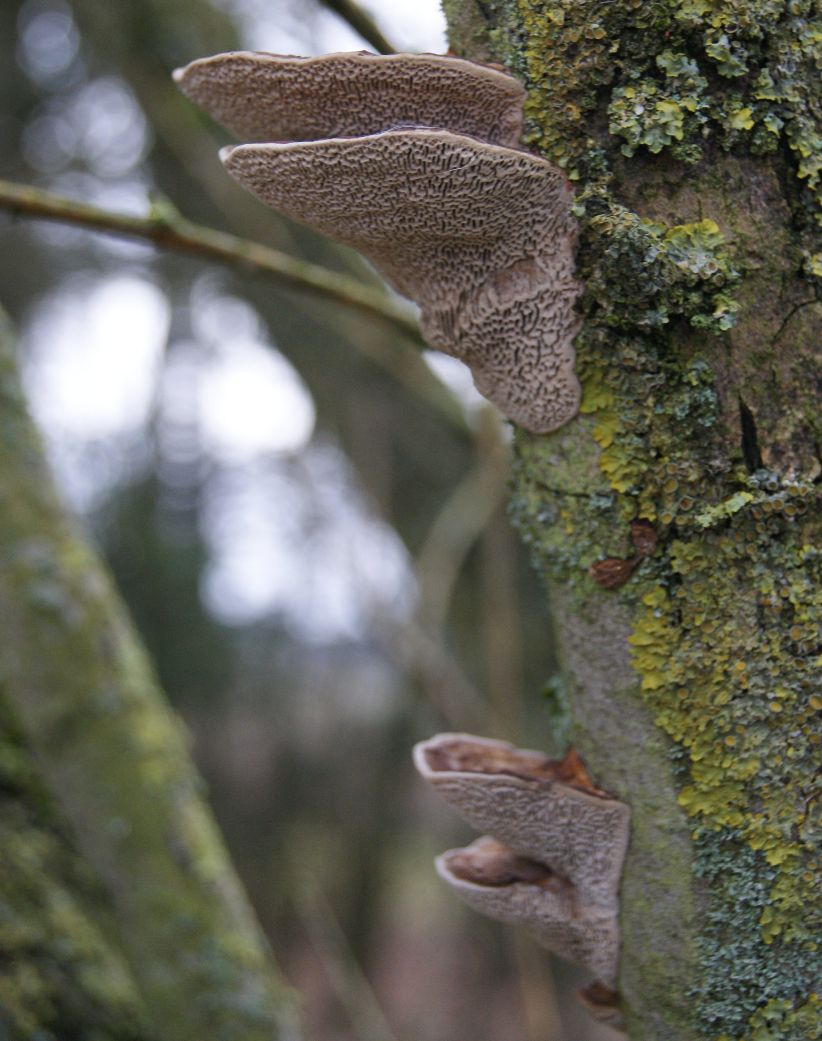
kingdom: Fungi
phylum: Basidiomycota
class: Agaricomycetes
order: Polyporales
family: Polyporaceae
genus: Daedaleopsis
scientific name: Daedaleopsis confragosa
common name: rødmende læderporesvamp
